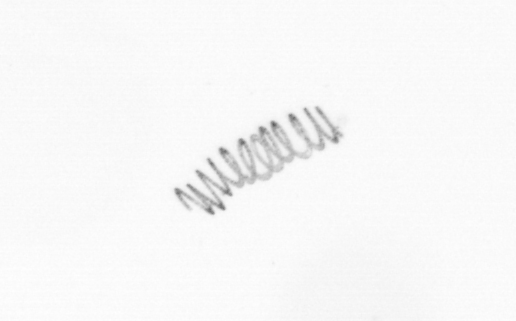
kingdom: Chromista
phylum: Ochrophyta
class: Bacillariophyceae
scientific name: Bacillariophyceae
